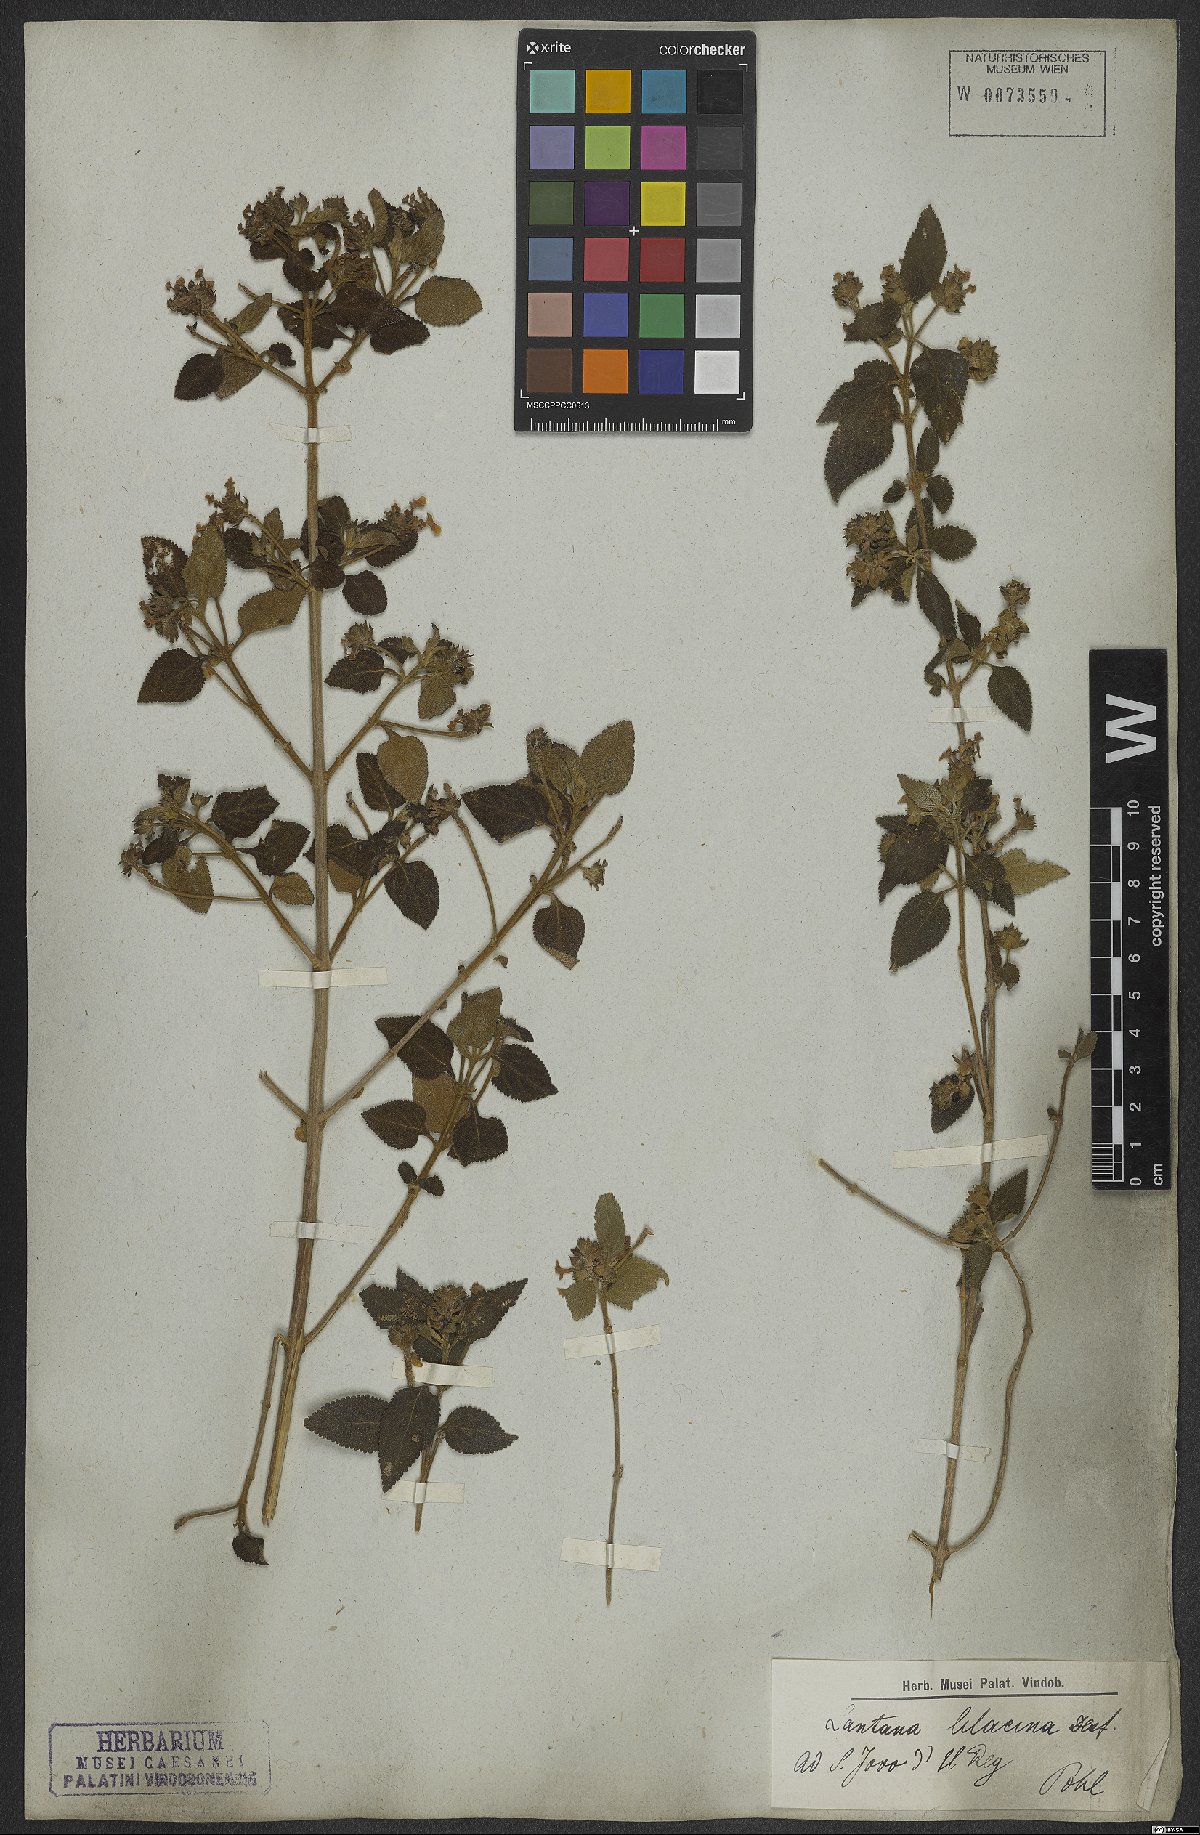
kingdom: Plantae
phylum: Tracheophyta
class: Magnoliopsida
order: Lamiales
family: Verbenaceae
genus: Lantana
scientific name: Lantana fucata
